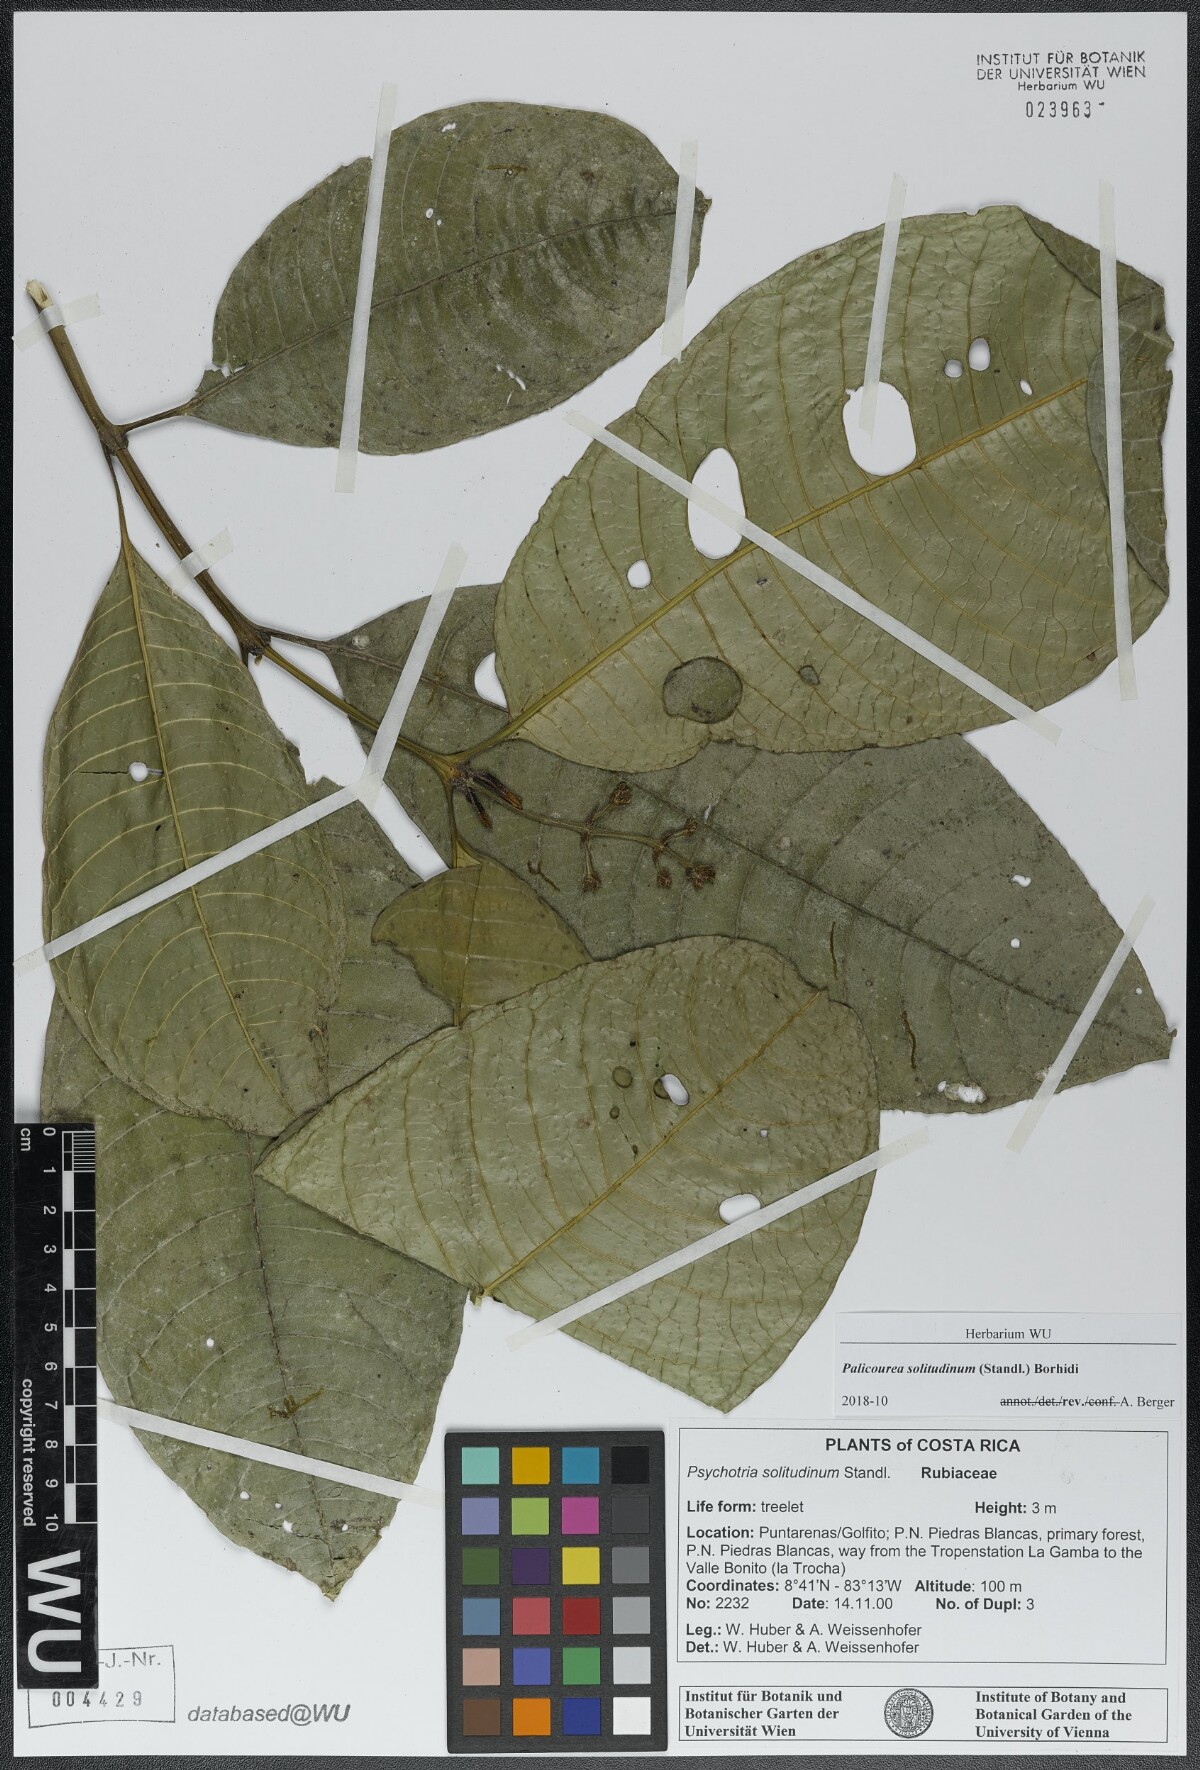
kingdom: Plantae
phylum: Tracheophyta
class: Magnoliopsida
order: Gentianales
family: Rubiaceae
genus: Palicourea
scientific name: Palicourea solitudinum
